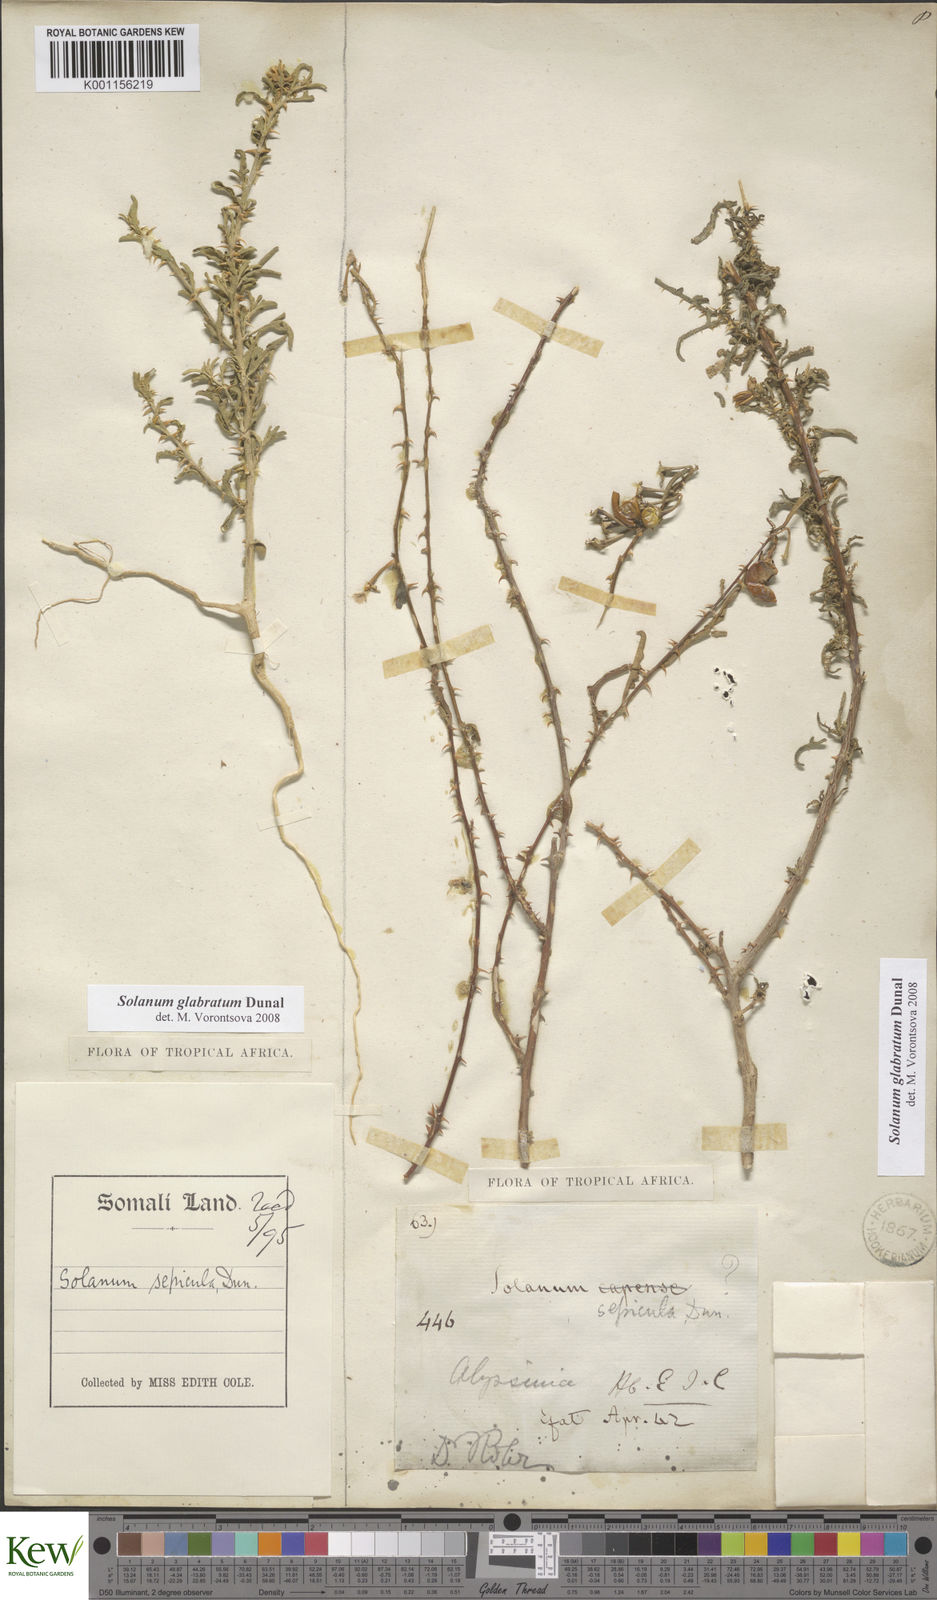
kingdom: Plantae
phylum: Tracheophyta
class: Magnoliopsida
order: Solanales
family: Solanaceae
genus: Solanum
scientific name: Solanum glabratum
